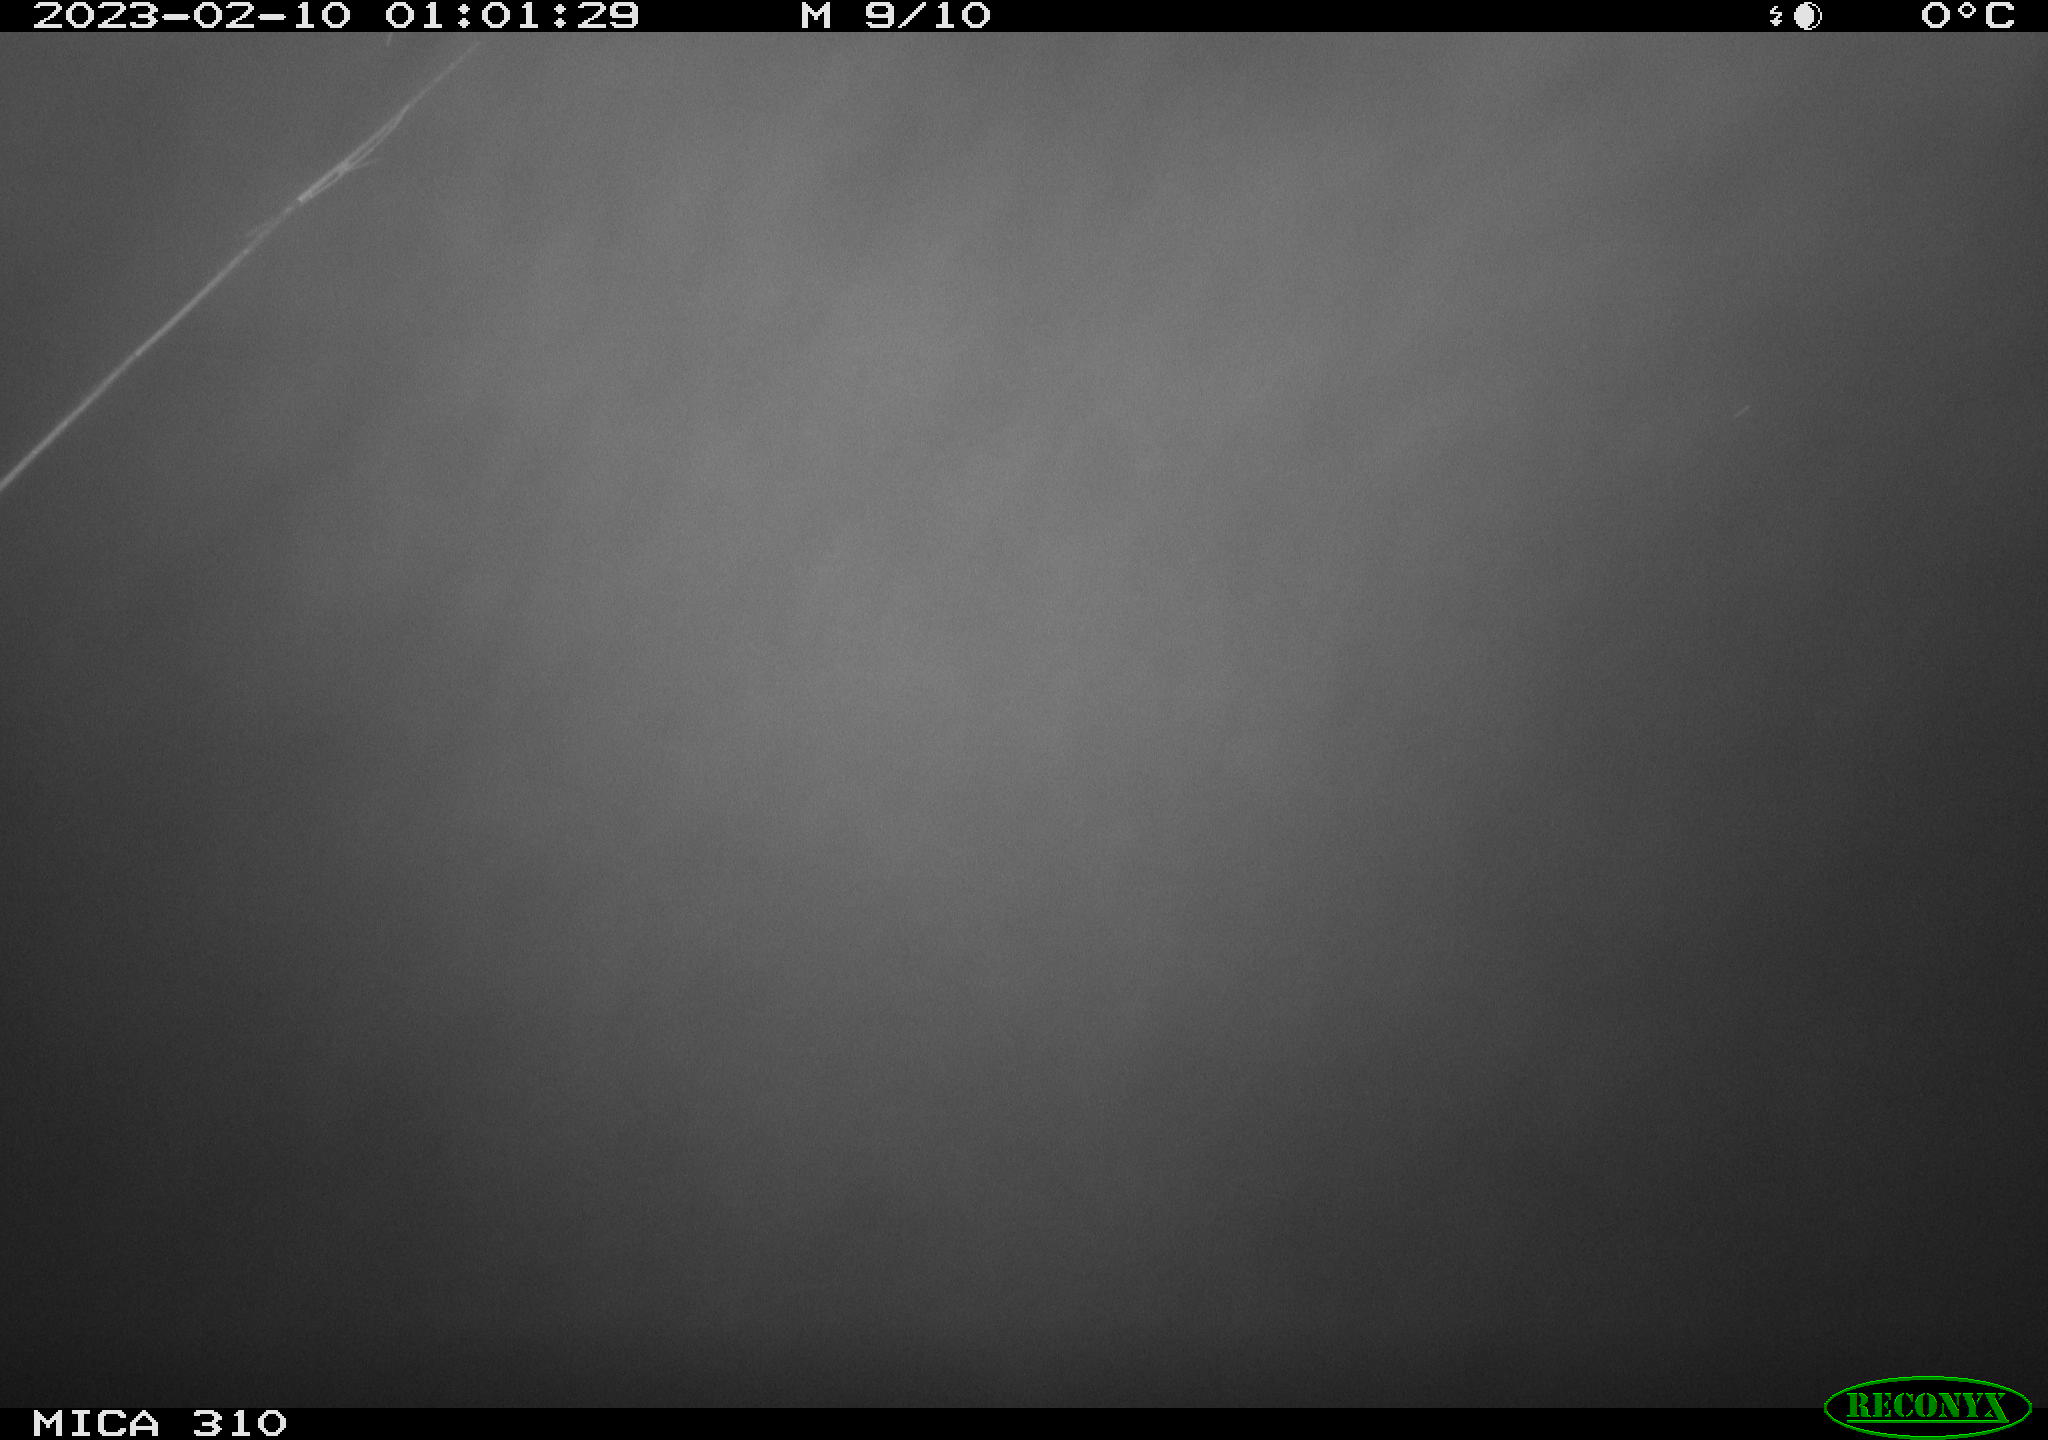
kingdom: Animalia
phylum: Chordata
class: Aves
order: Anseriformes
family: Anatidae
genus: Anas
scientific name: Anas
